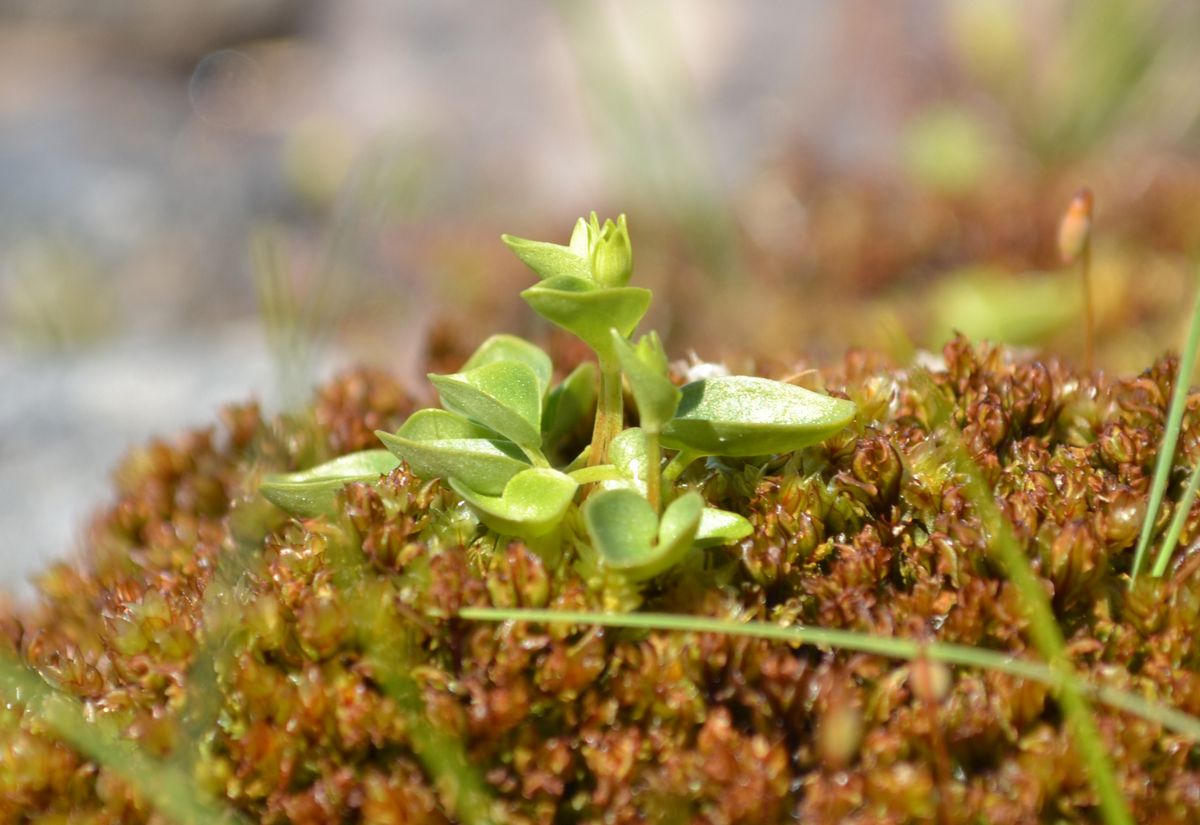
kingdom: Plantae
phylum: Tracheophyta
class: Magnoliopsida
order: Celastrales
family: Parnassiaceae
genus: Parnassia
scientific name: Parnassia palustris
